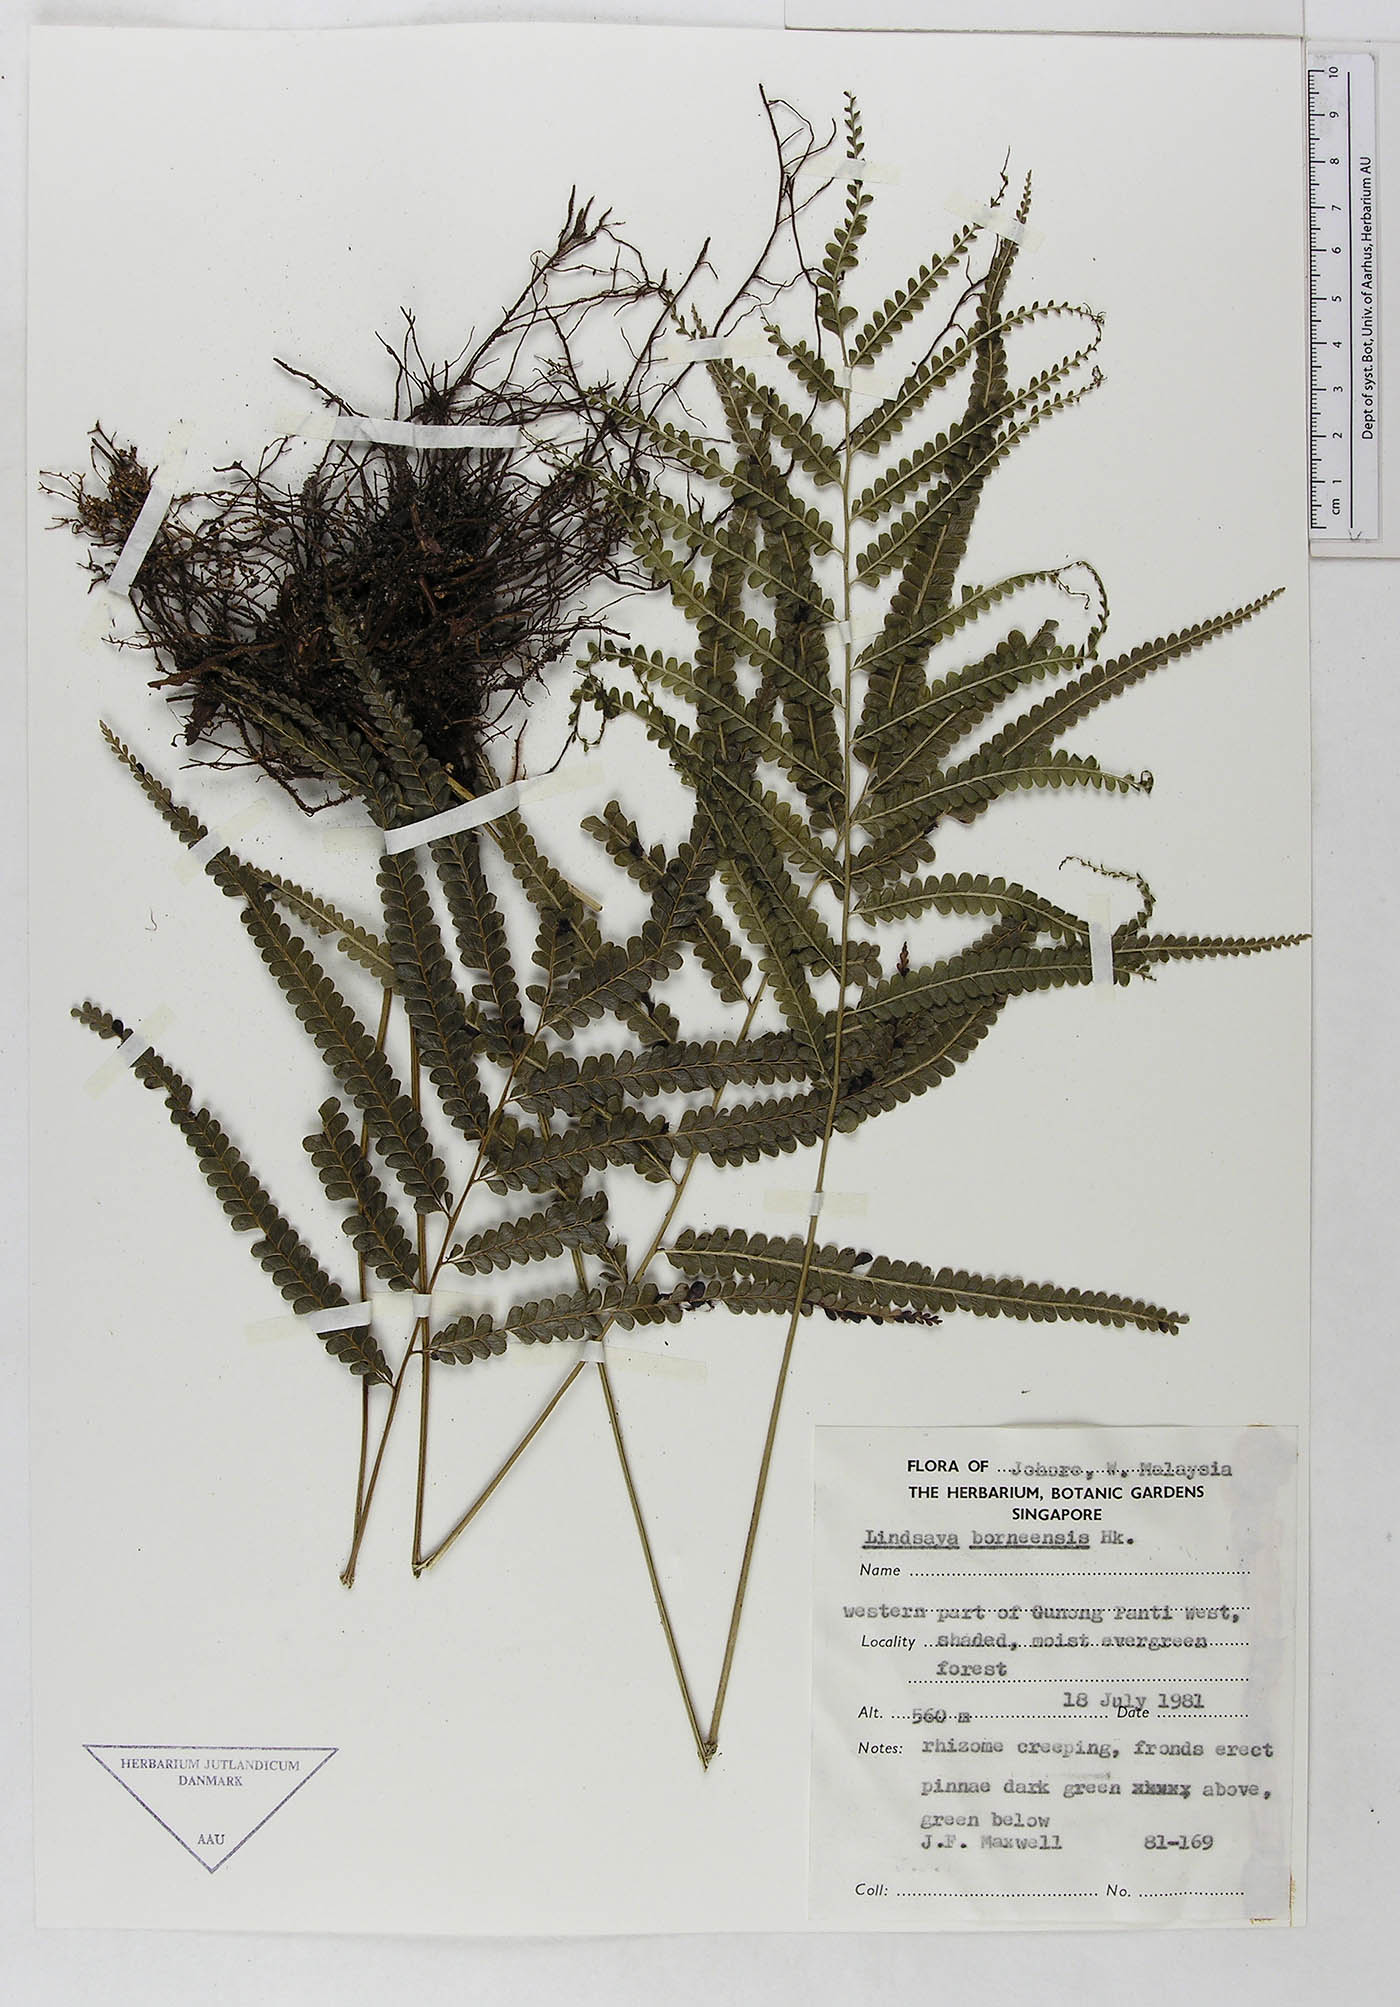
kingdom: Plantae
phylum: Tracheophyta
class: Polypodiopsida
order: Polypodiales
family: Lindsaeaceae
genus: Lindsaea
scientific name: Lindsaea borneensis
